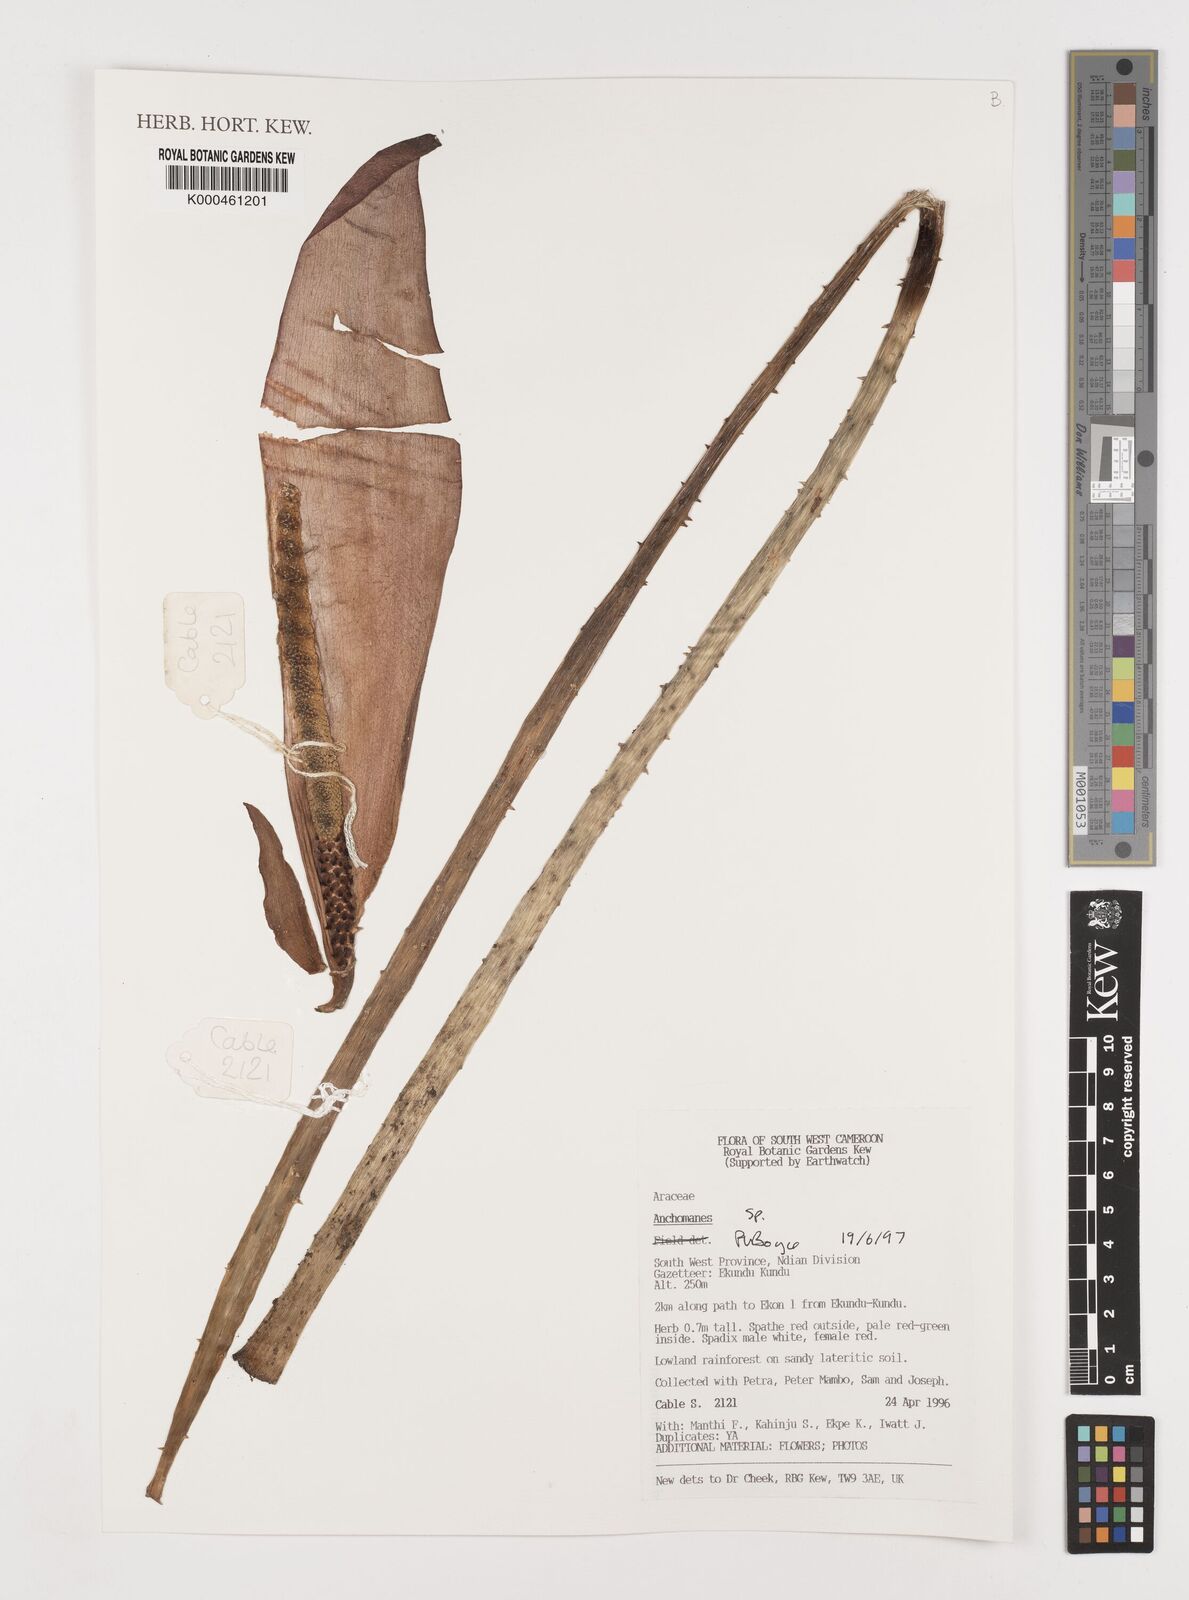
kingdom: Plantae
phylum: Tracheophyta
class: Liliopsida
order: Alismatales
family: Araceae
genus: Anchomanes
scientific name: Anchomanes
